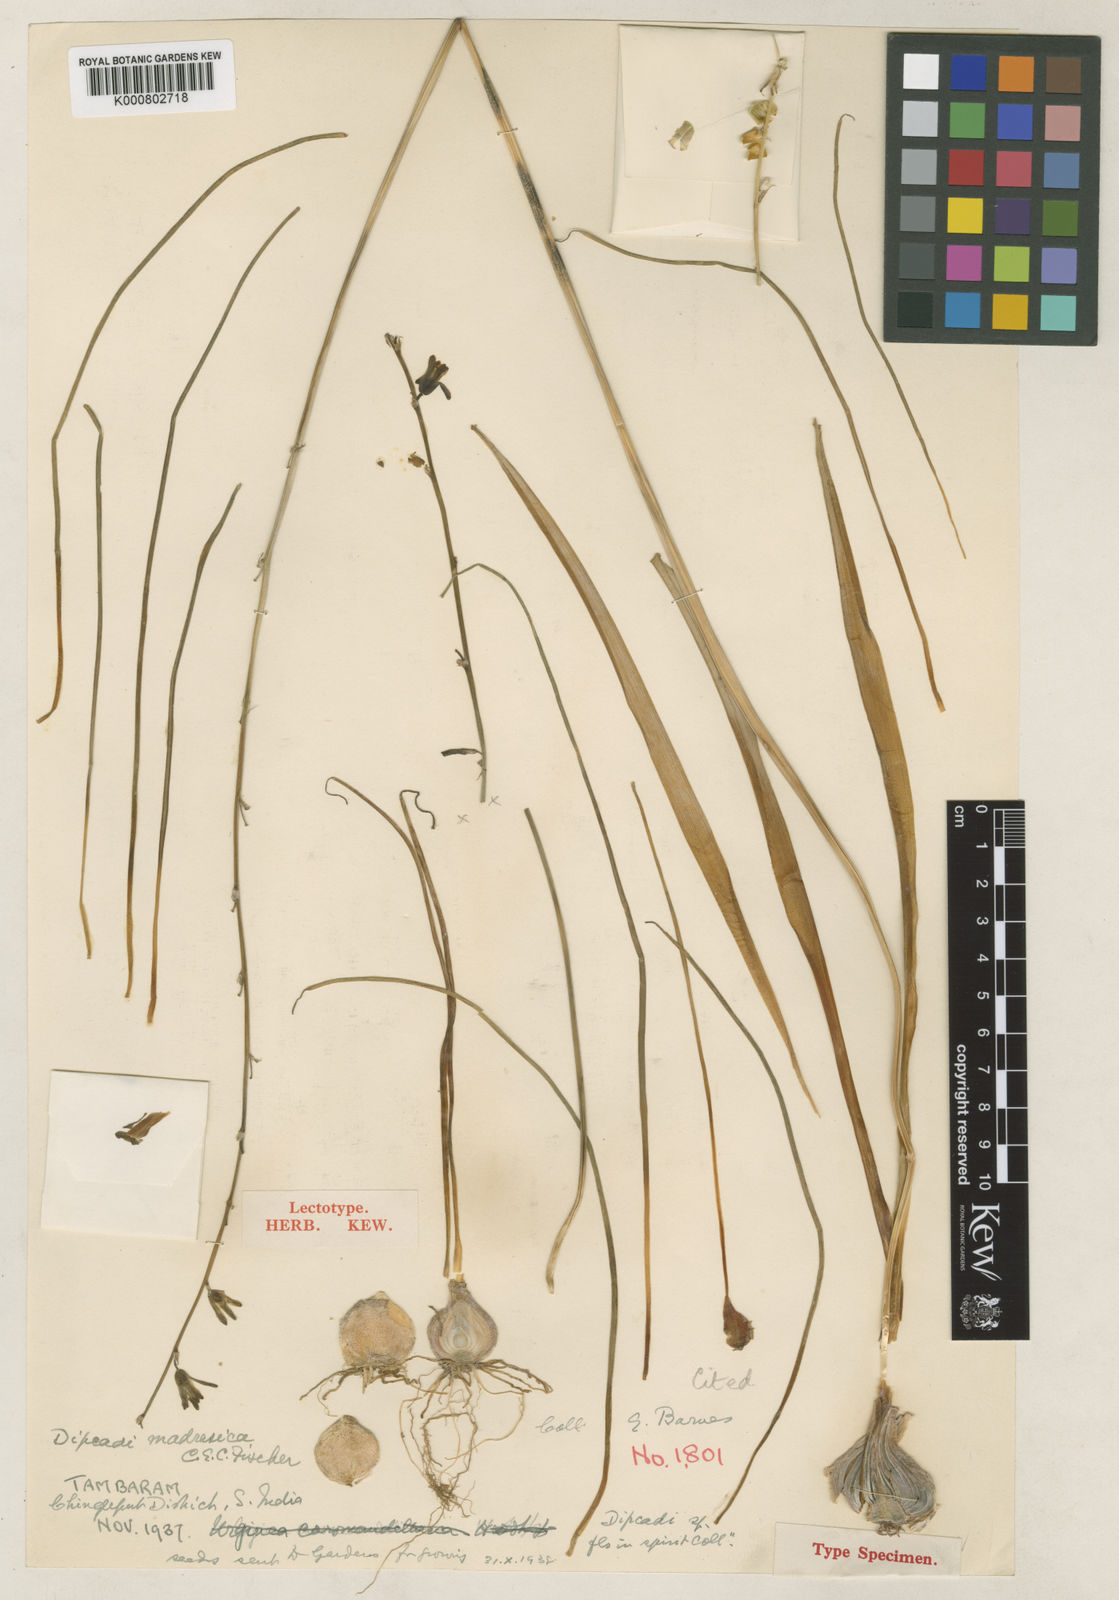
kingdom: Plantae
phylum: Tracheophyta
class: Liliopsida
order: Asparagales
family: Asparagaceae
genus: Dipcadi
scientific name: Dipcadi montanum
